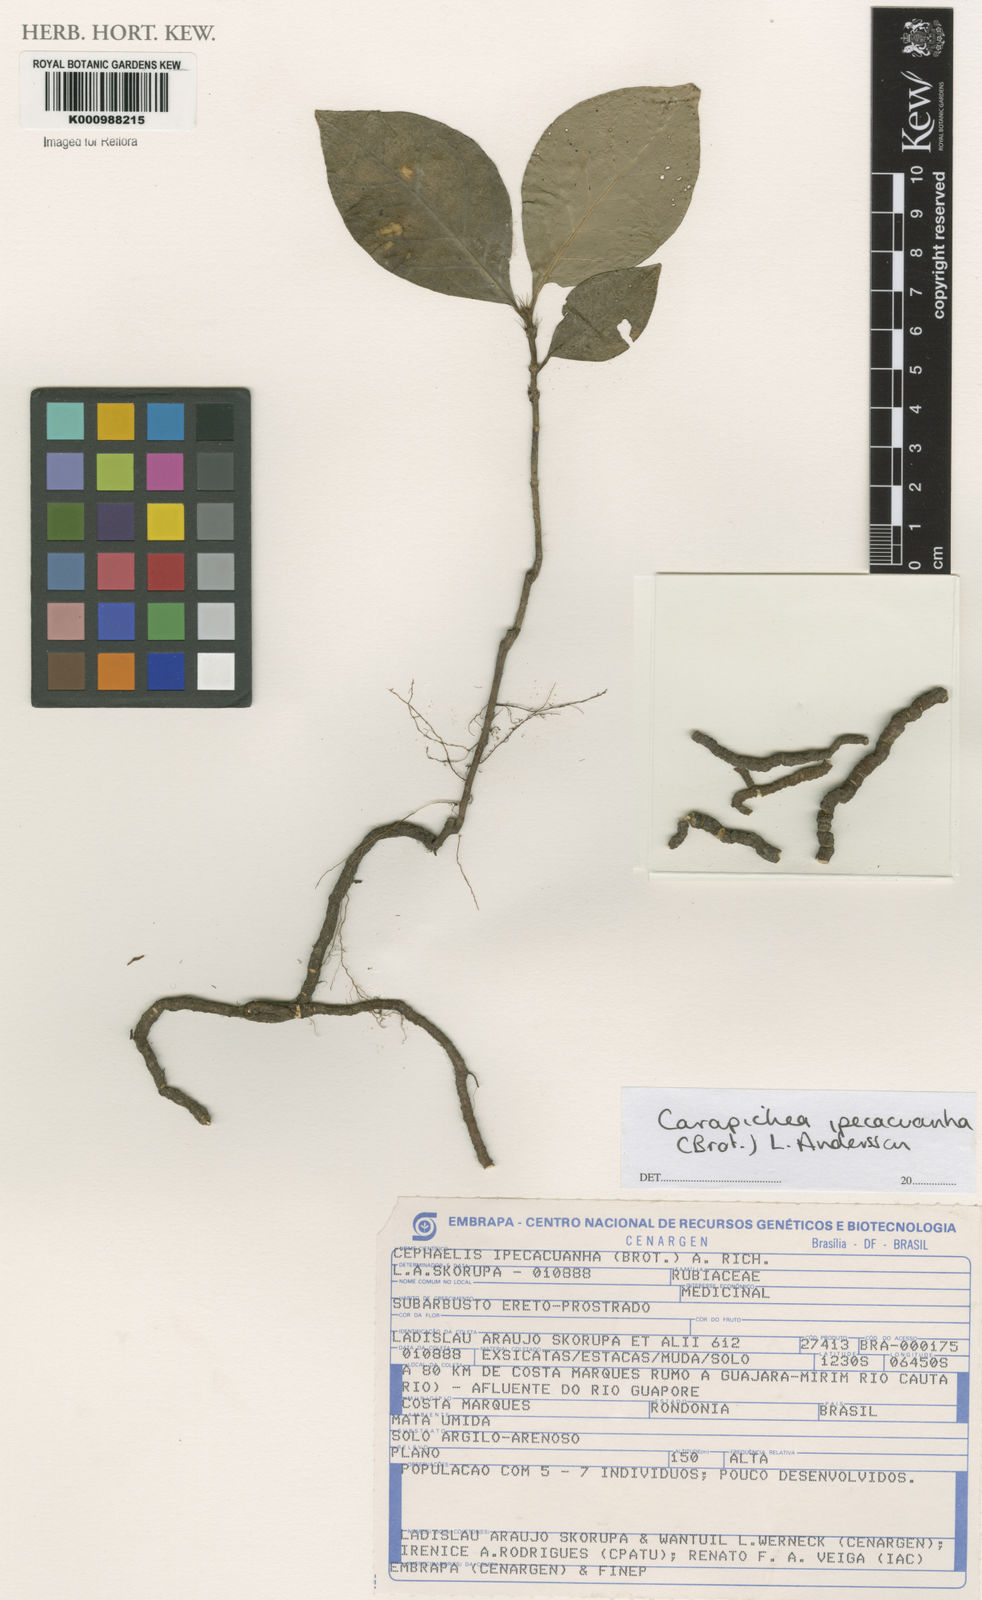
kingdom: Plantae
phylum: Tracheophyta
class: Magnoliopsida
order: Gentianales
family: Rubiaceae
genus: Carapichea
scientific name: Carapichea ipecacuanha
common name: Ipecac
